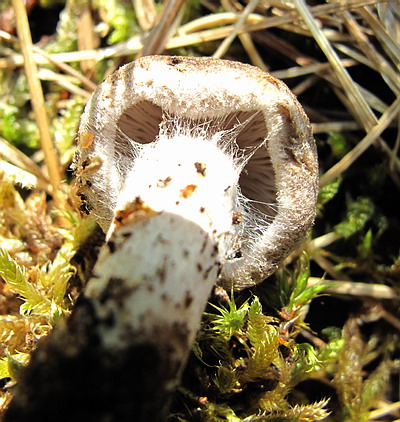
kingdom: Fungi
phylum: Basidiomycota
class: Agaricomycetes
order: Agaricales
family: Tricholomataceae
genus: Tricholoma
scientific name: Tricholoma argyraceum
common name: slør-ridderhat
